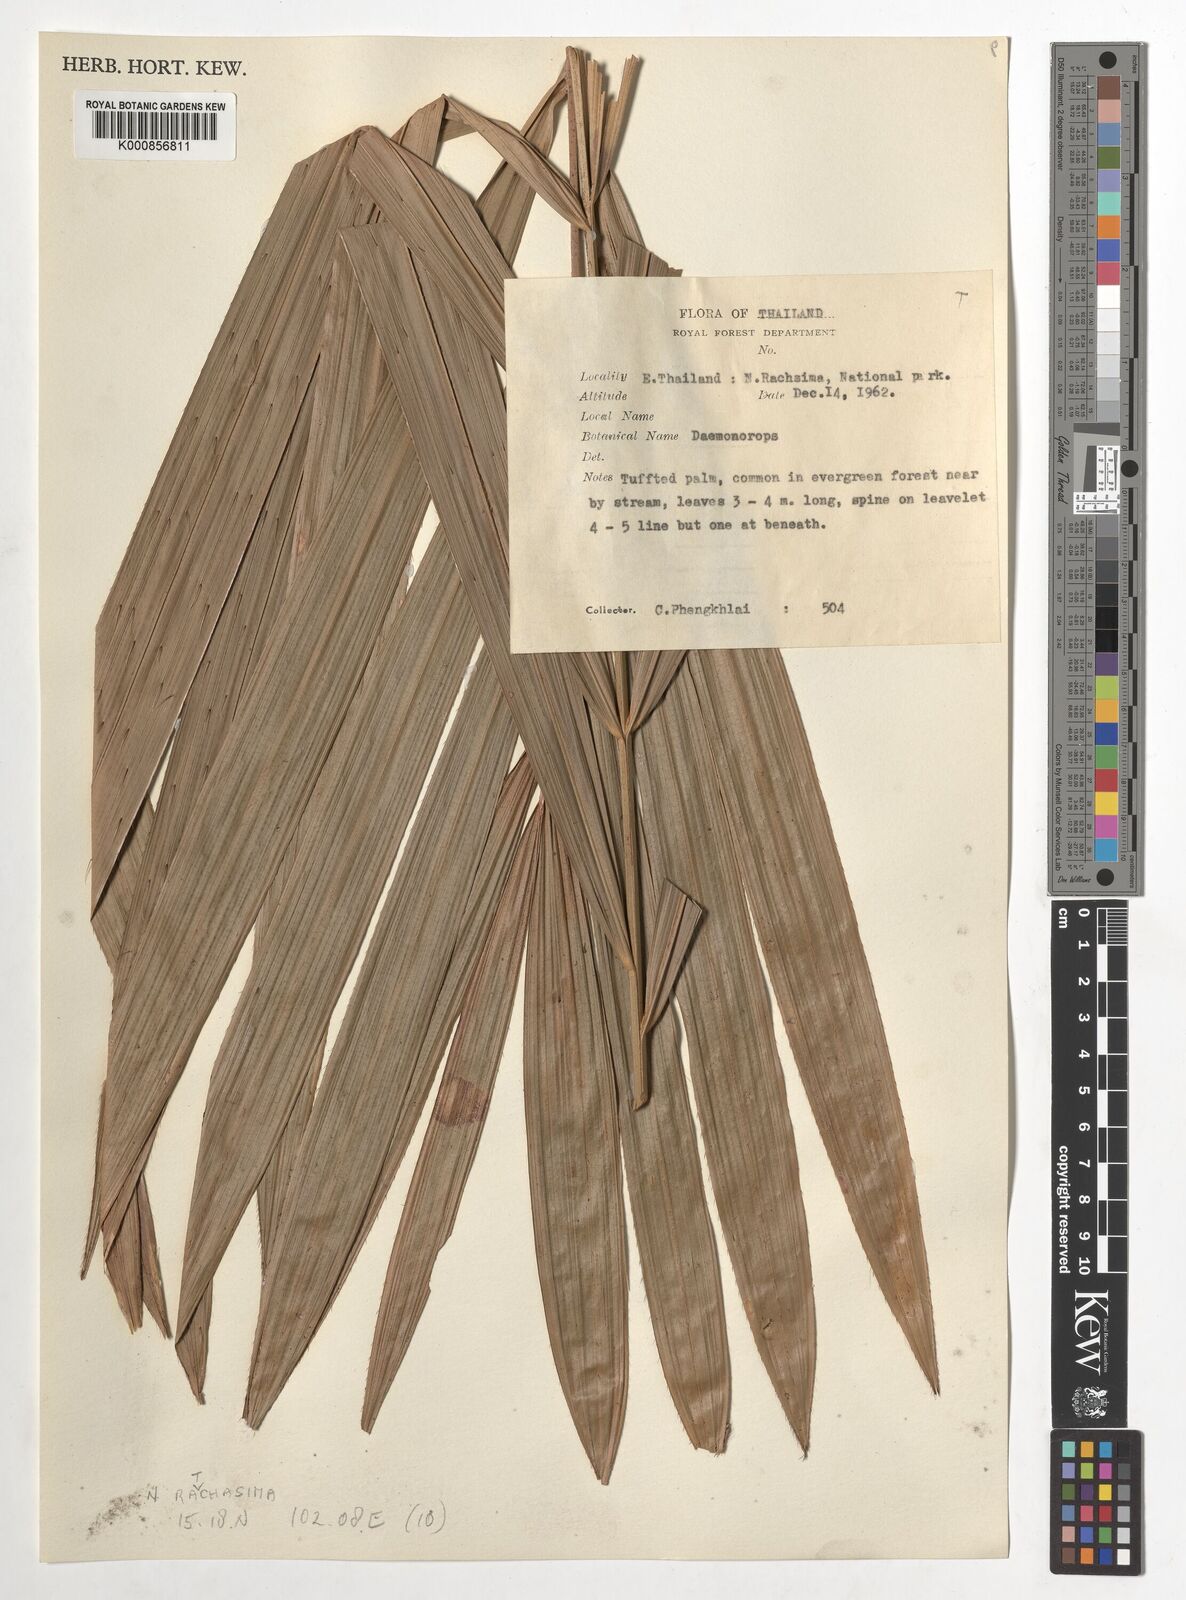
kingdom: Plantae
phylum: Tracheophyta
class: Liliopsida
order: Arecales
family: Arecaceae
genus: Daemonorops
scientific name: Daemonorops
